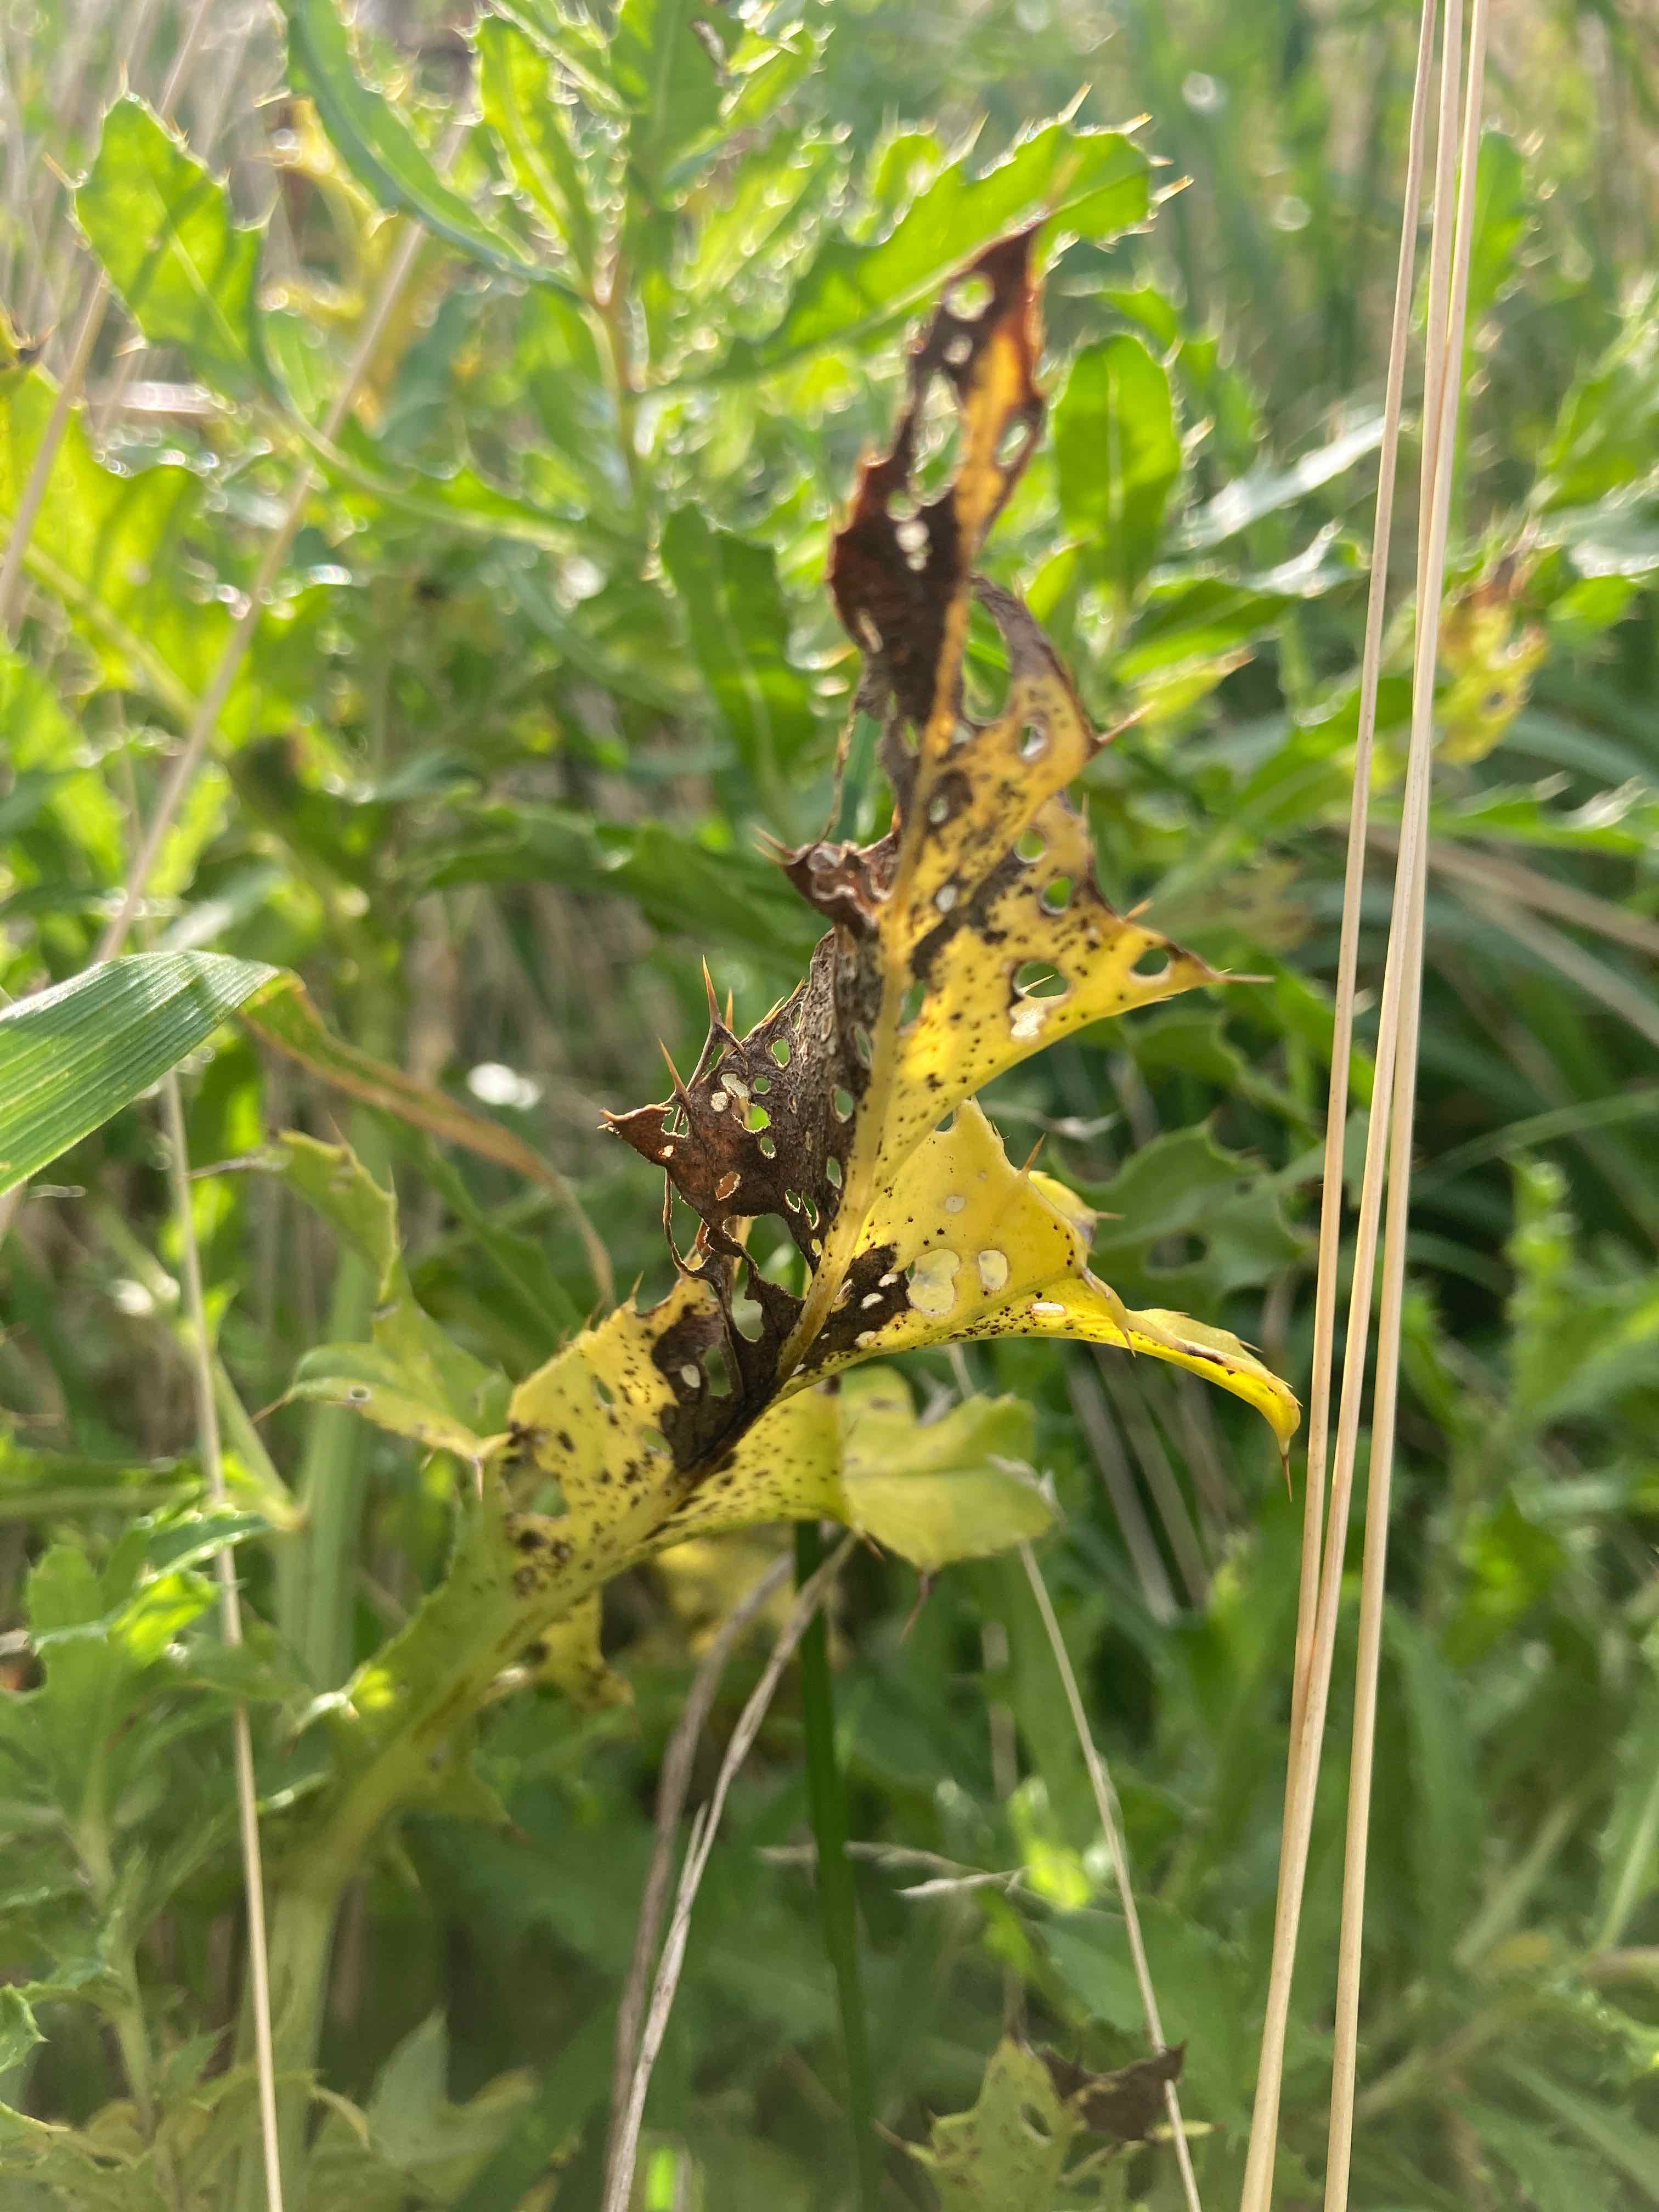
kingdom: Fungi
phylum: Basidiomycota
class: Pucciniomycetes
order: Pucciniales
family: Pucciniaceae
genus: Puccinia
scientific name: Puccinia suaveolens
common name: tidsel-tvecellerust
